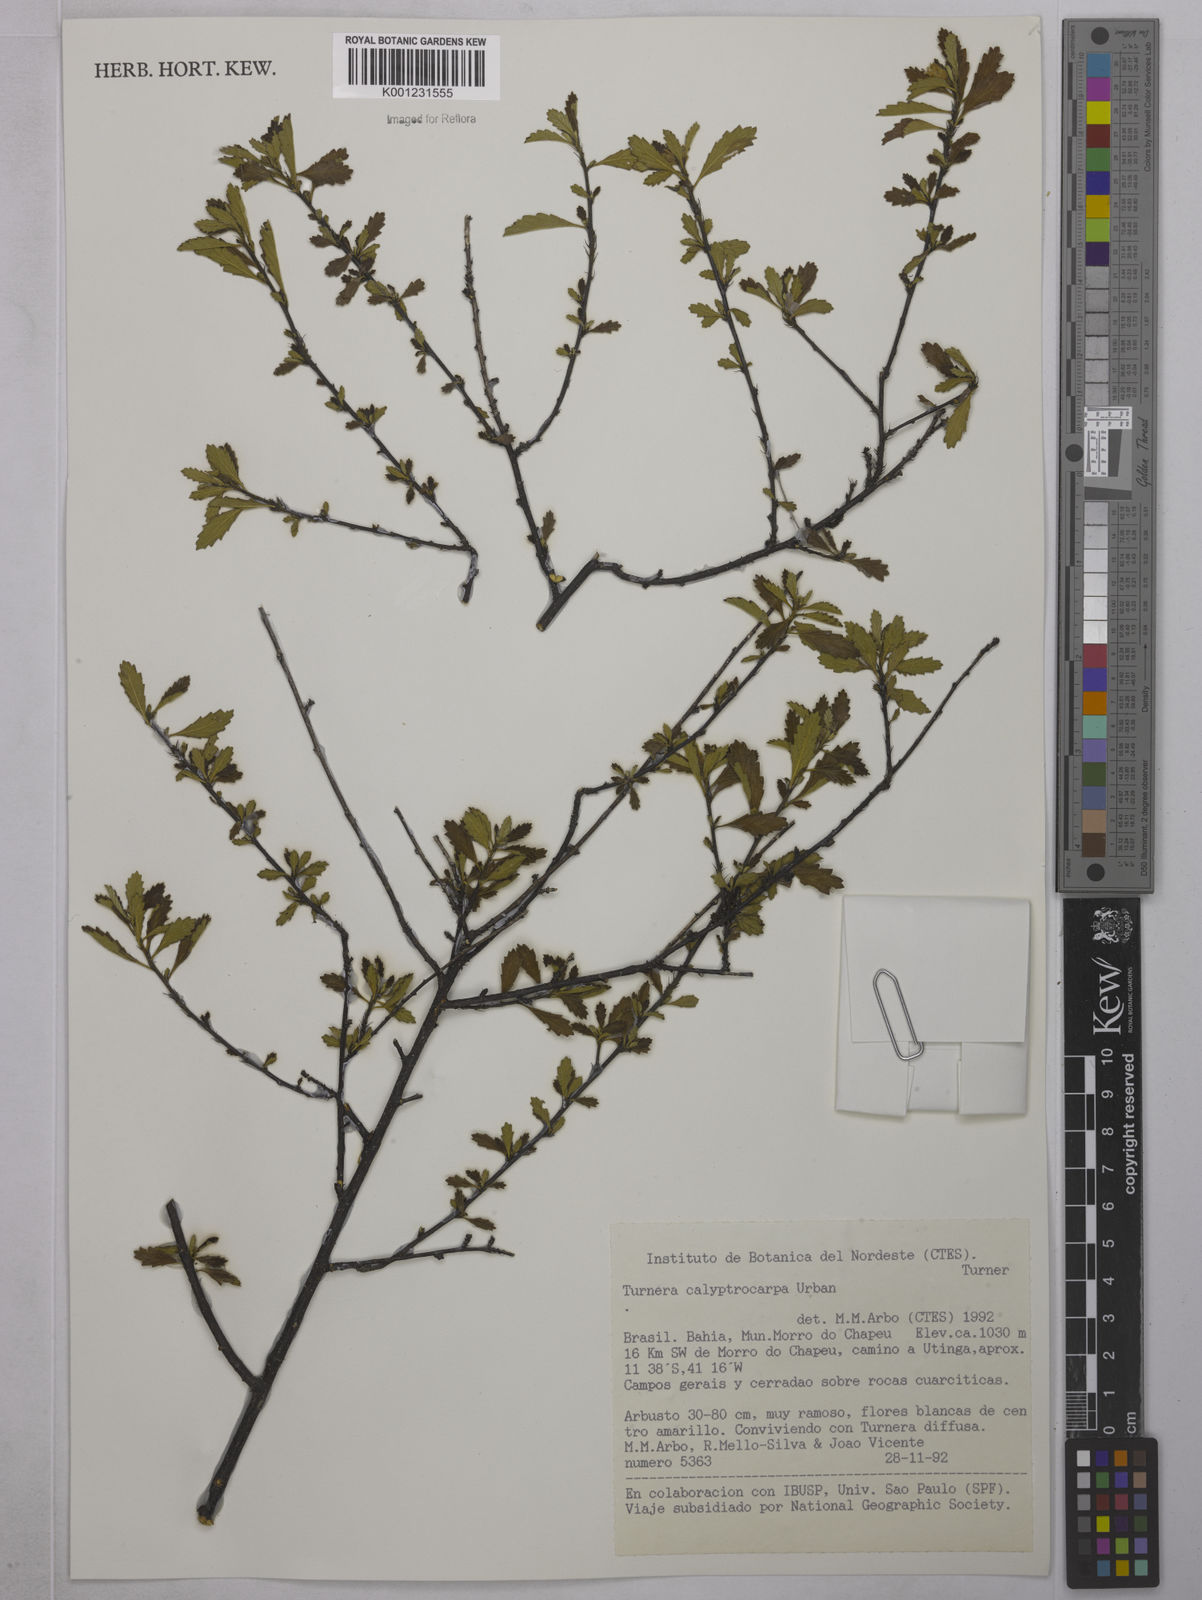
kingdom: Plantae
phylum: Tracheophyta
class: Magnoliopsida
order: Malpighiales
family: Turneraceae
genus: Oxossia
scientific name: Oxossia calyptrocarpa
